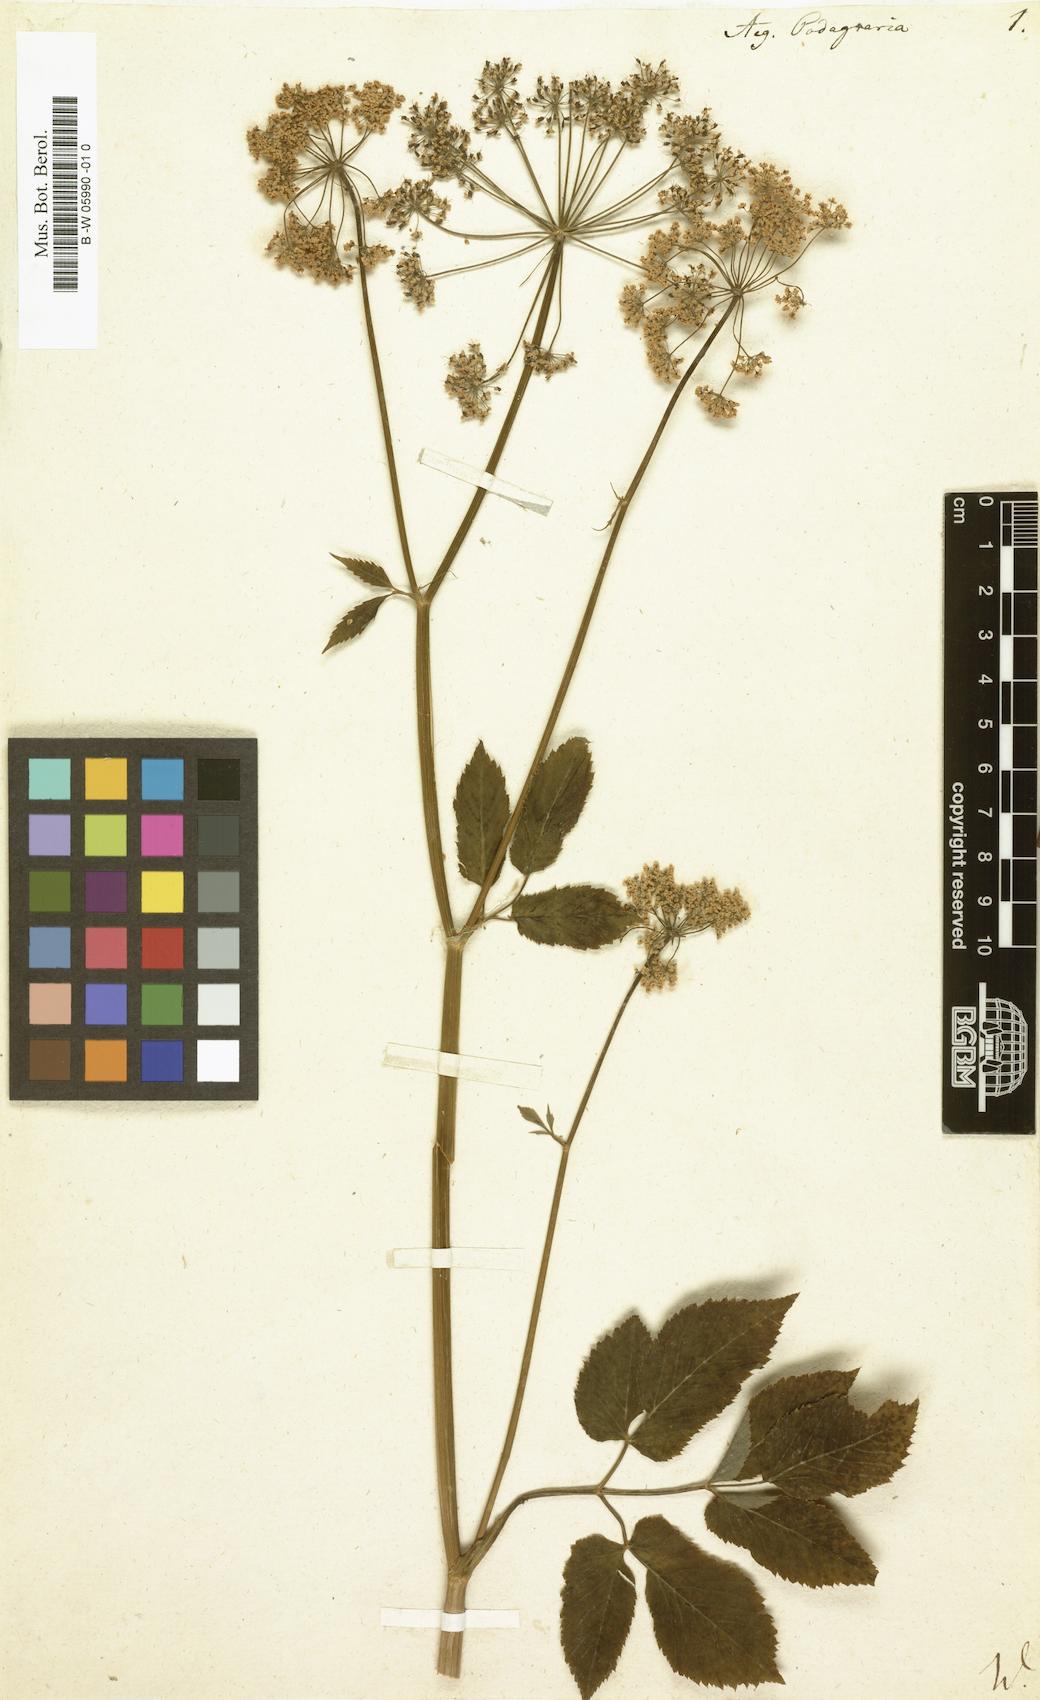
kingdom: Plantae
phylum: Tracheophyta
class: Magnoliopsida
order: Apiales
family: Apiaceae
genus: Aegopodium
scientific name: Aegopodium podagraria
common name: Ground-elder
